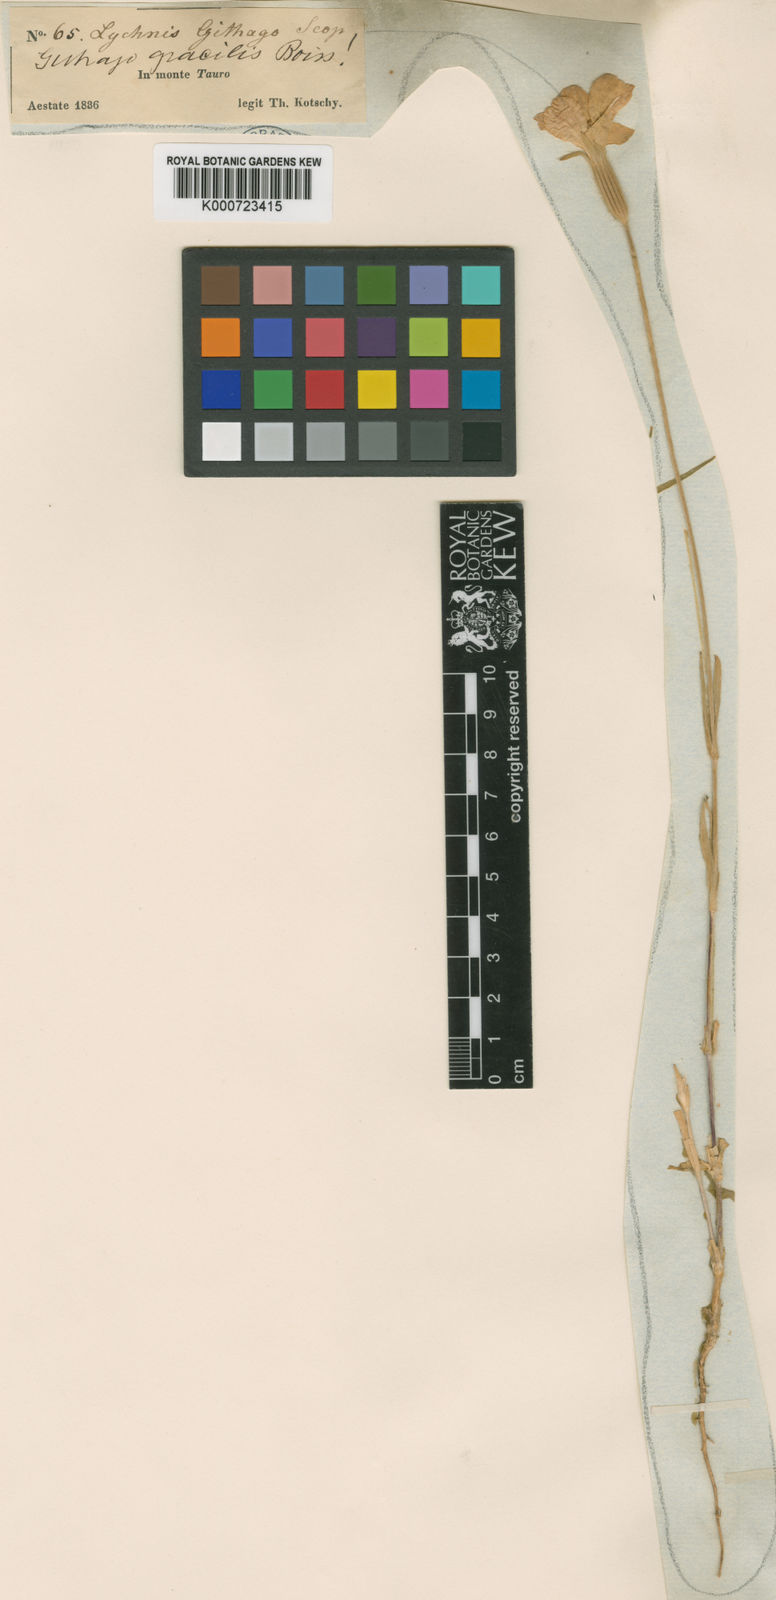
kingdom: Plantae
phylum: Tracheophyta
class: Magnoliopsida
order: Caryophyllales
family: Caryophyllaceae
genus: Agrostemma
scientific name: Agrostemma brachyloba
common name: Narrow corncockle
